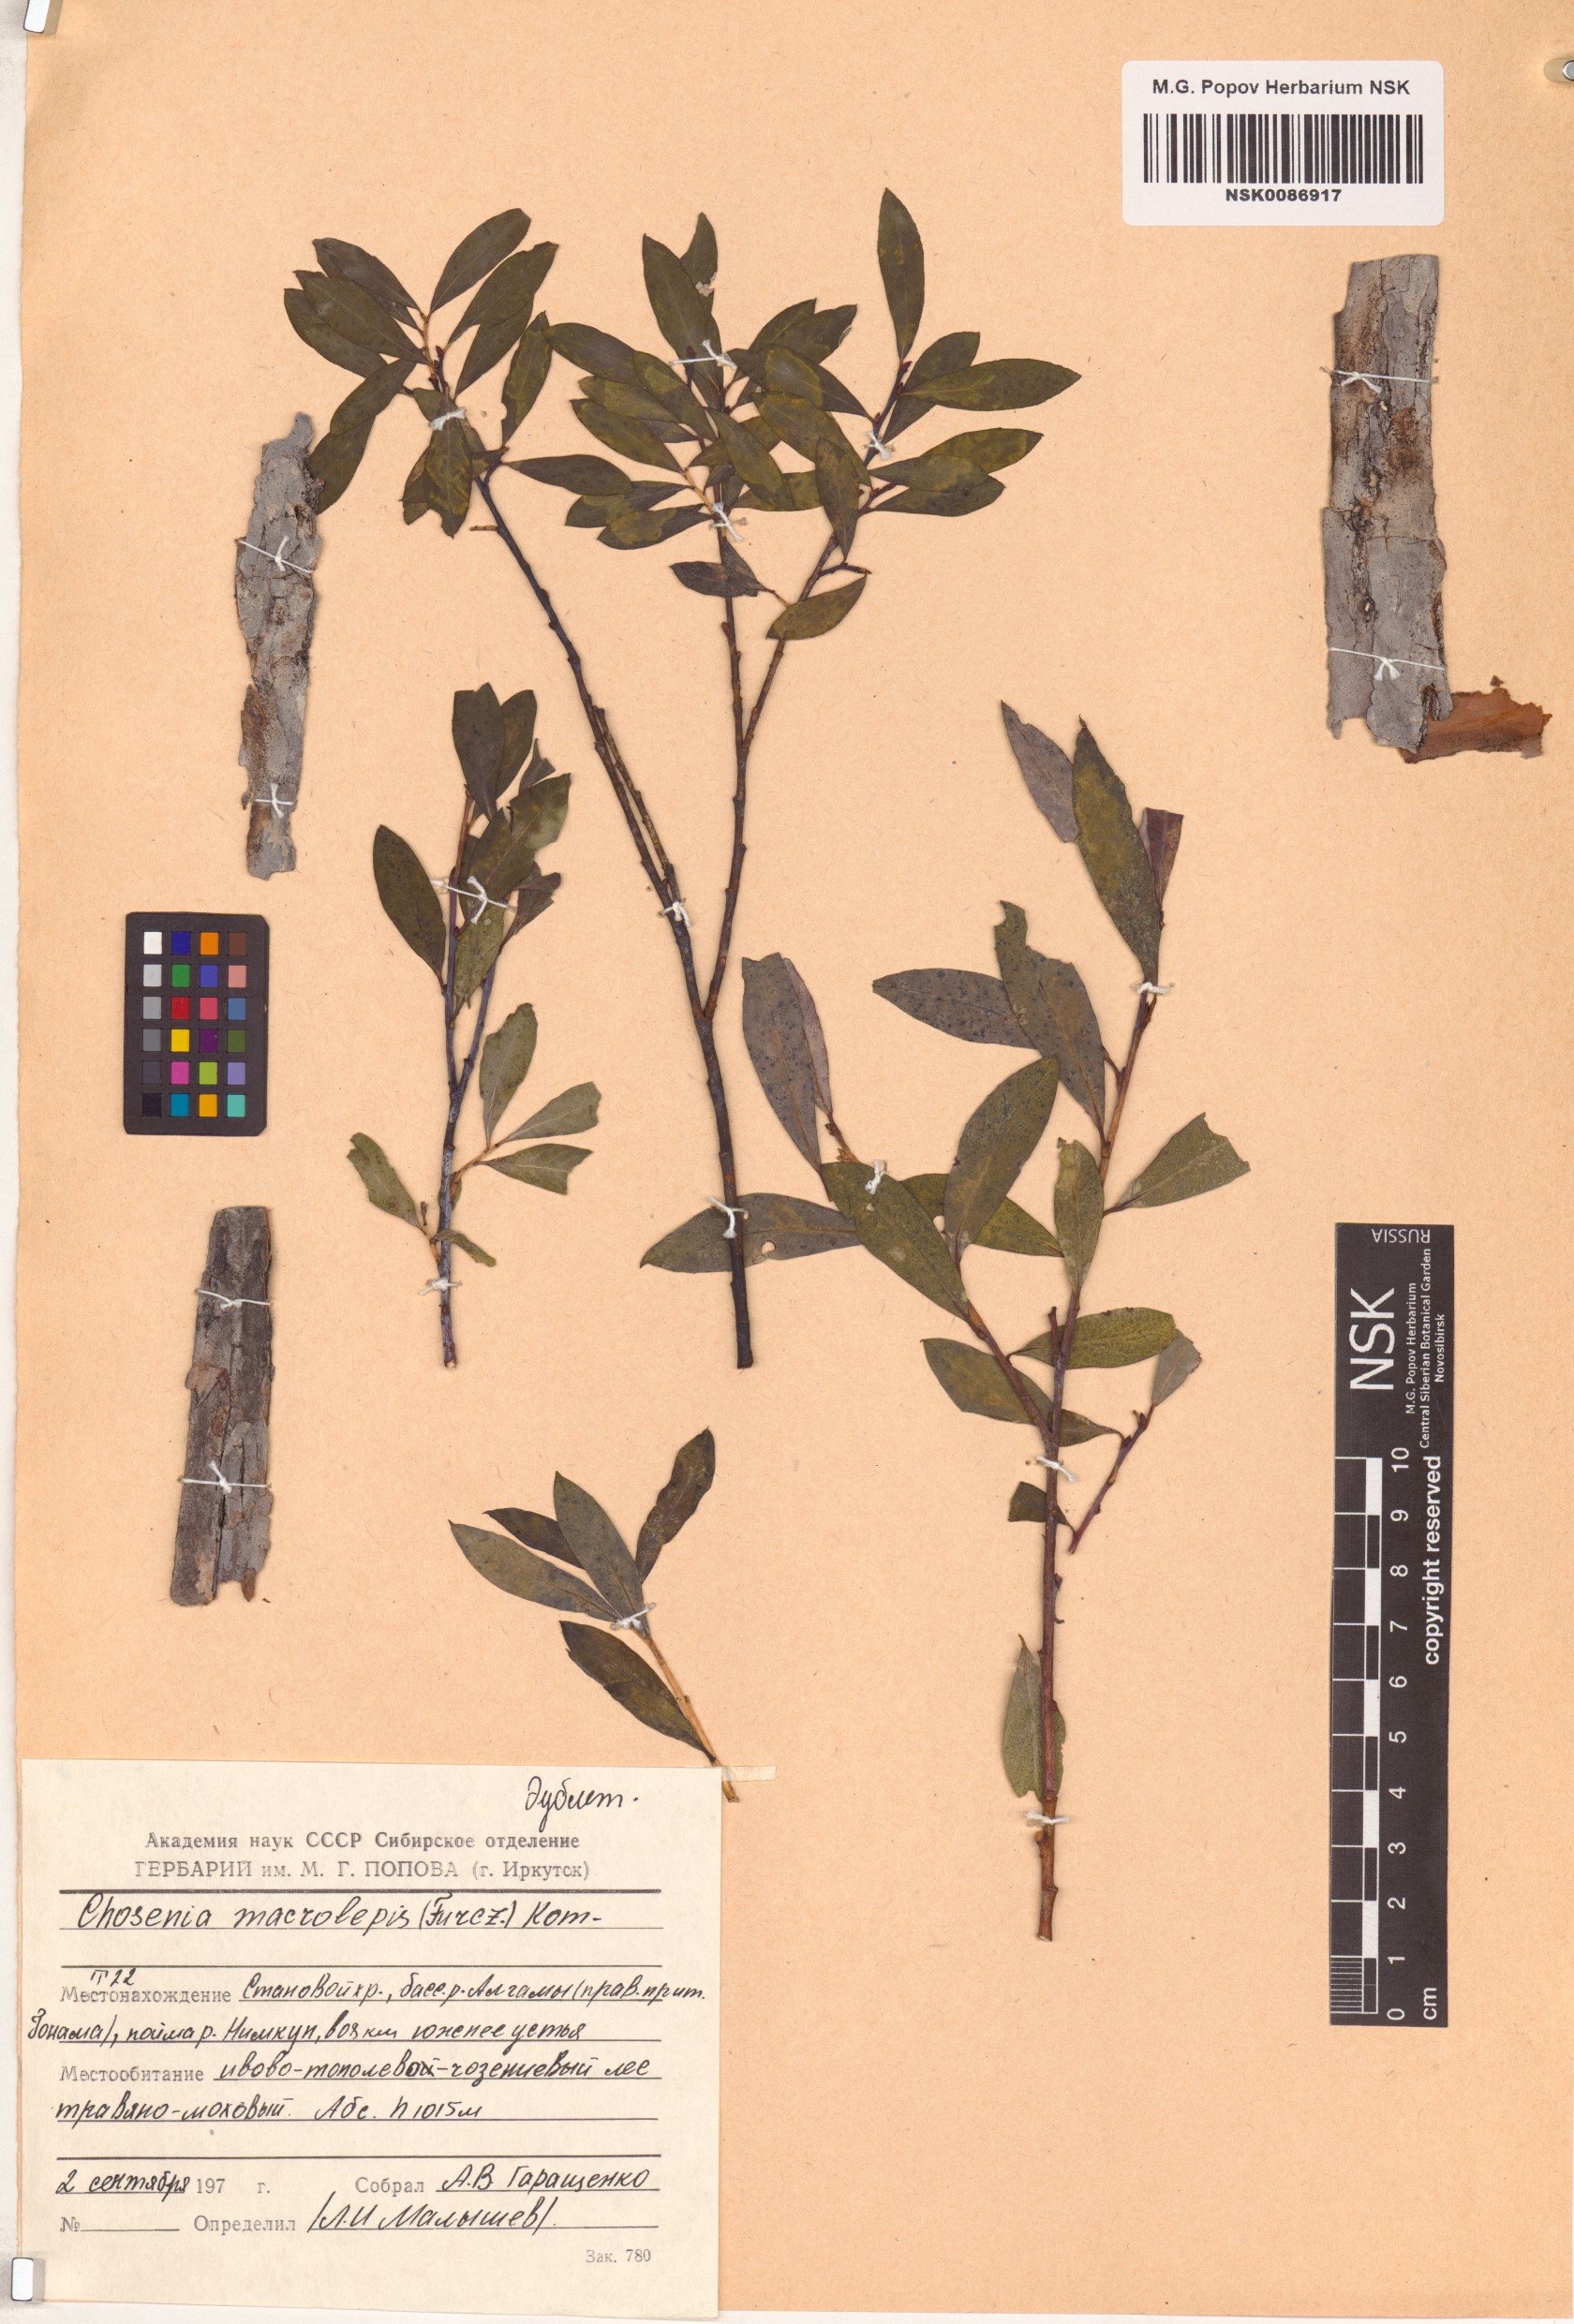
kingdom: Plantae
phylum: Tracheophyta
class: Magnoliopsida
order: Malpighiales
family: Salicaceae
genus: Chosenia
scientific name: Chosenia arbutifolia
